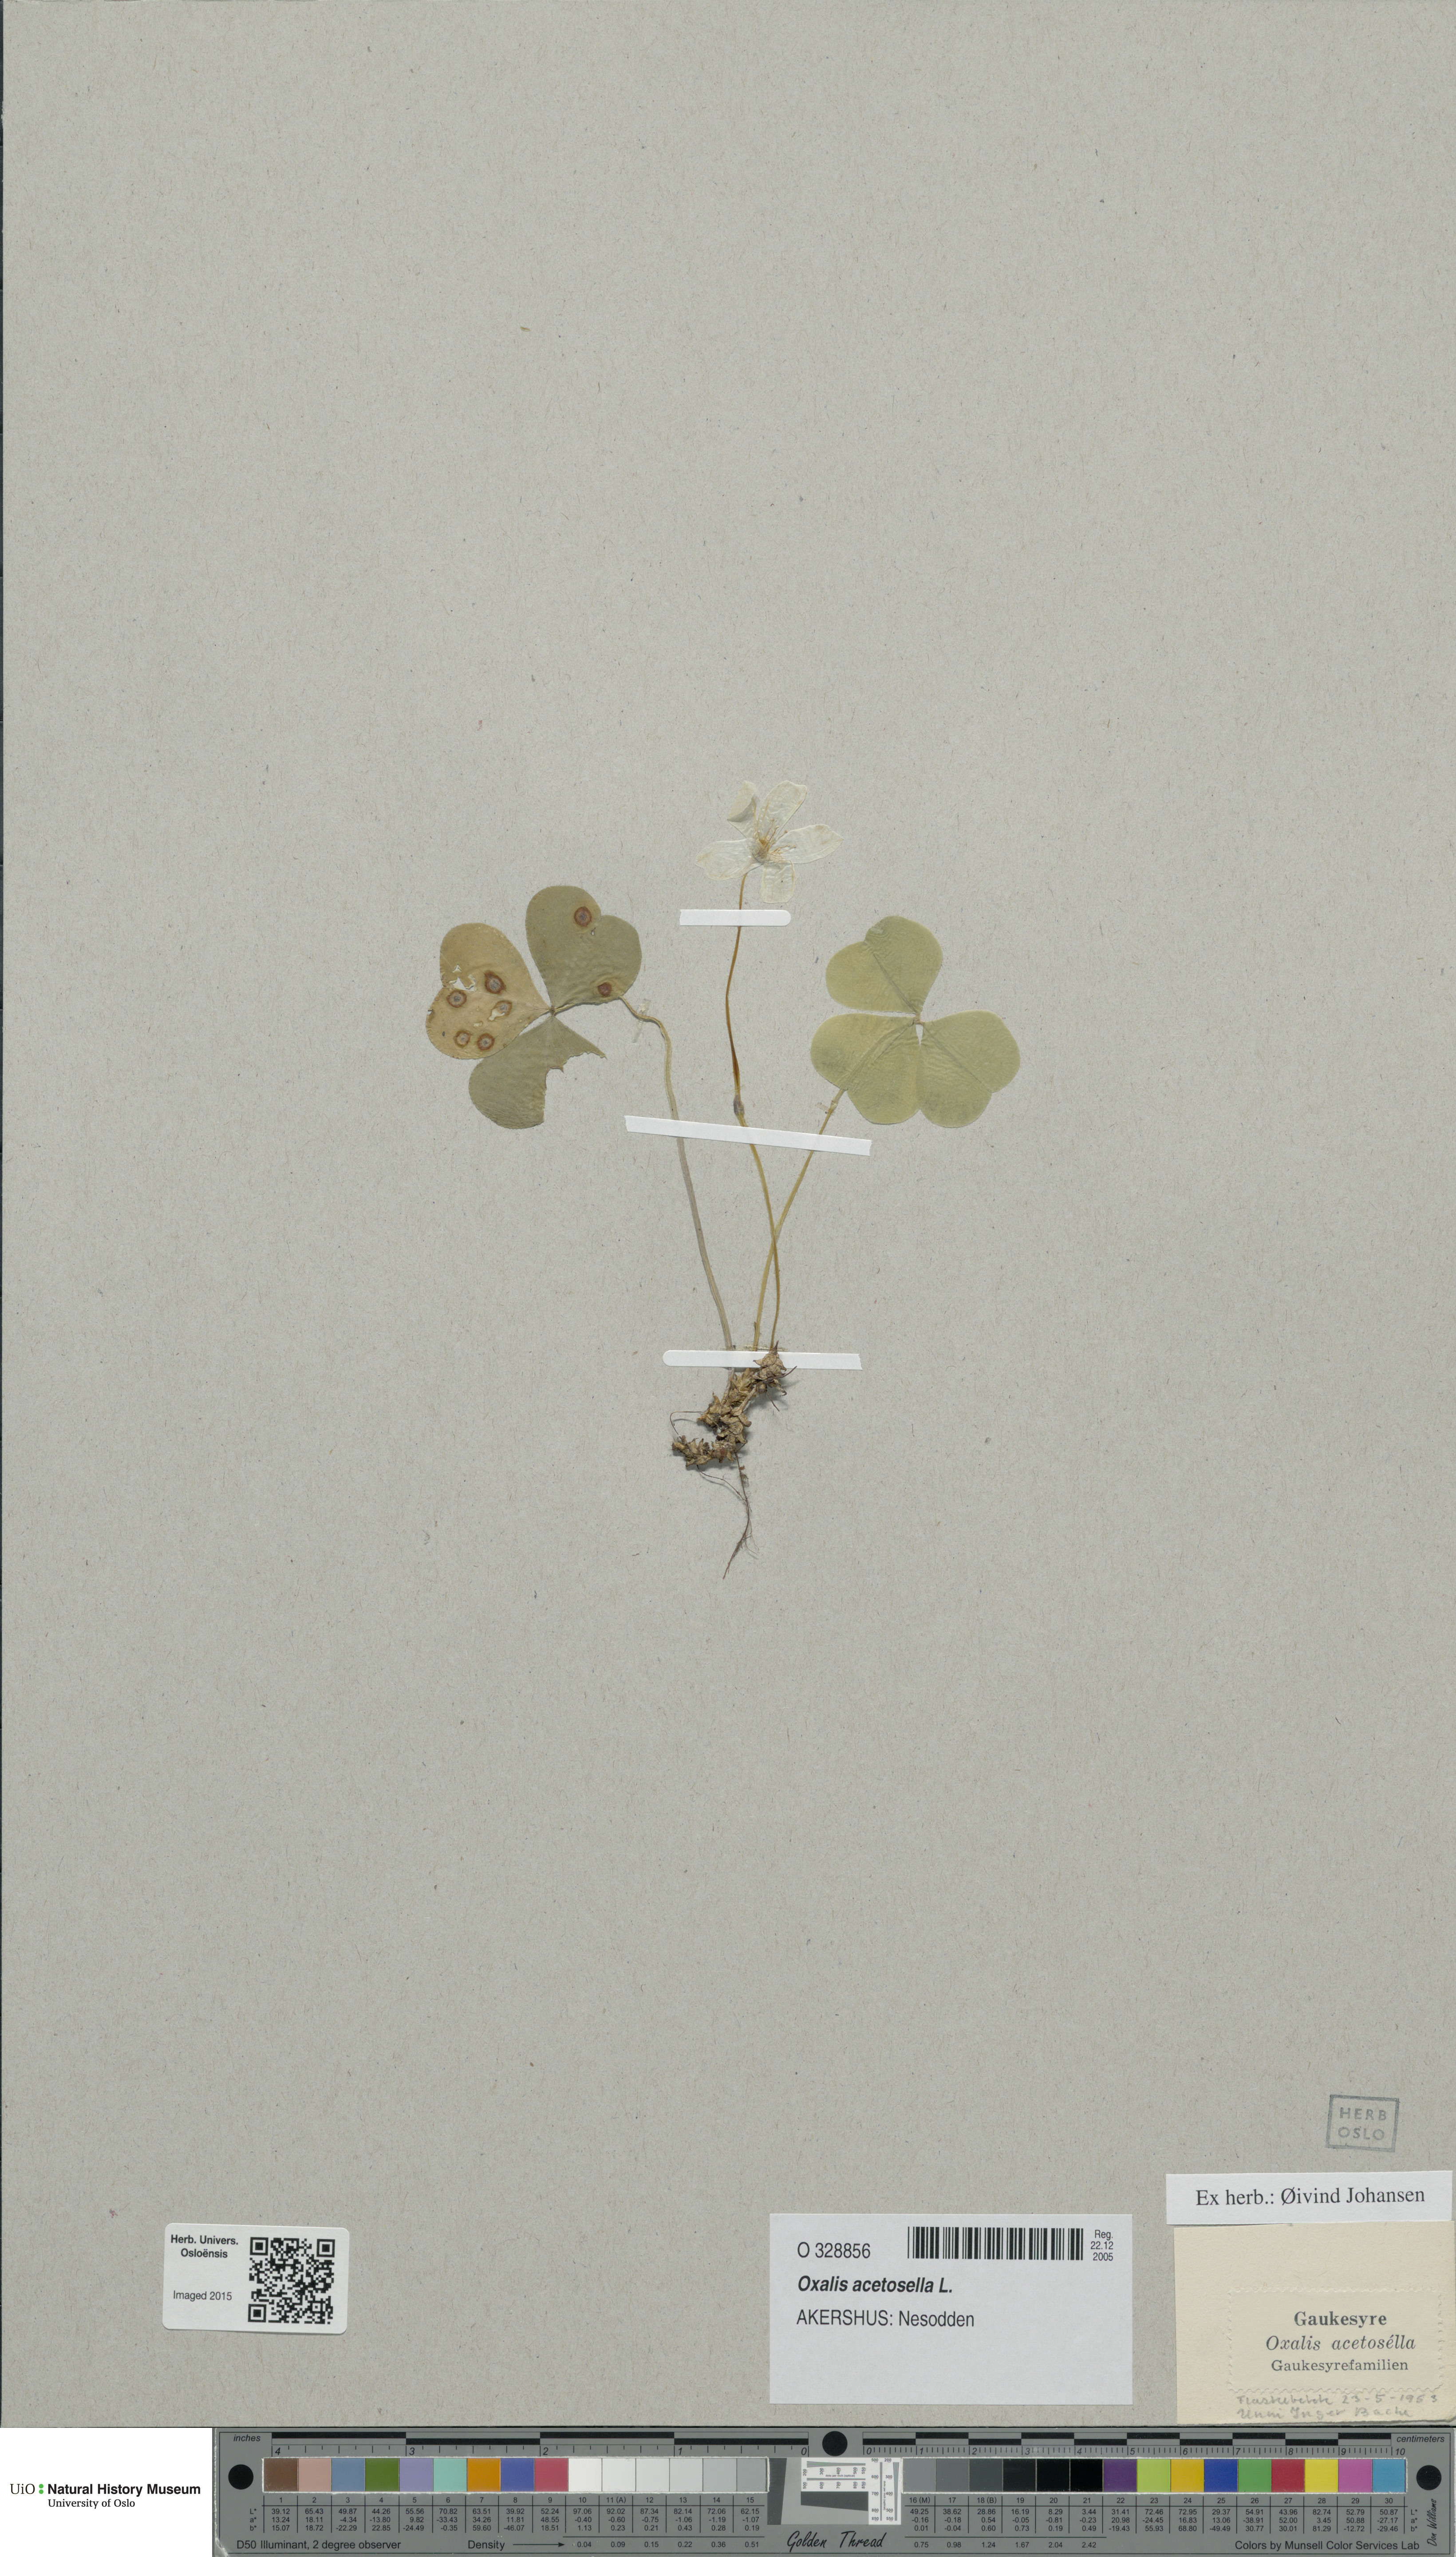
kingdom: Plantae
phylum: Tracheophyta
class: Magnoliopsida
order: Oxalidales
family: Oxalidaceae
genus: Oxalis
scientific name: Oxalis acetosella
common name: Wood-sorrel
